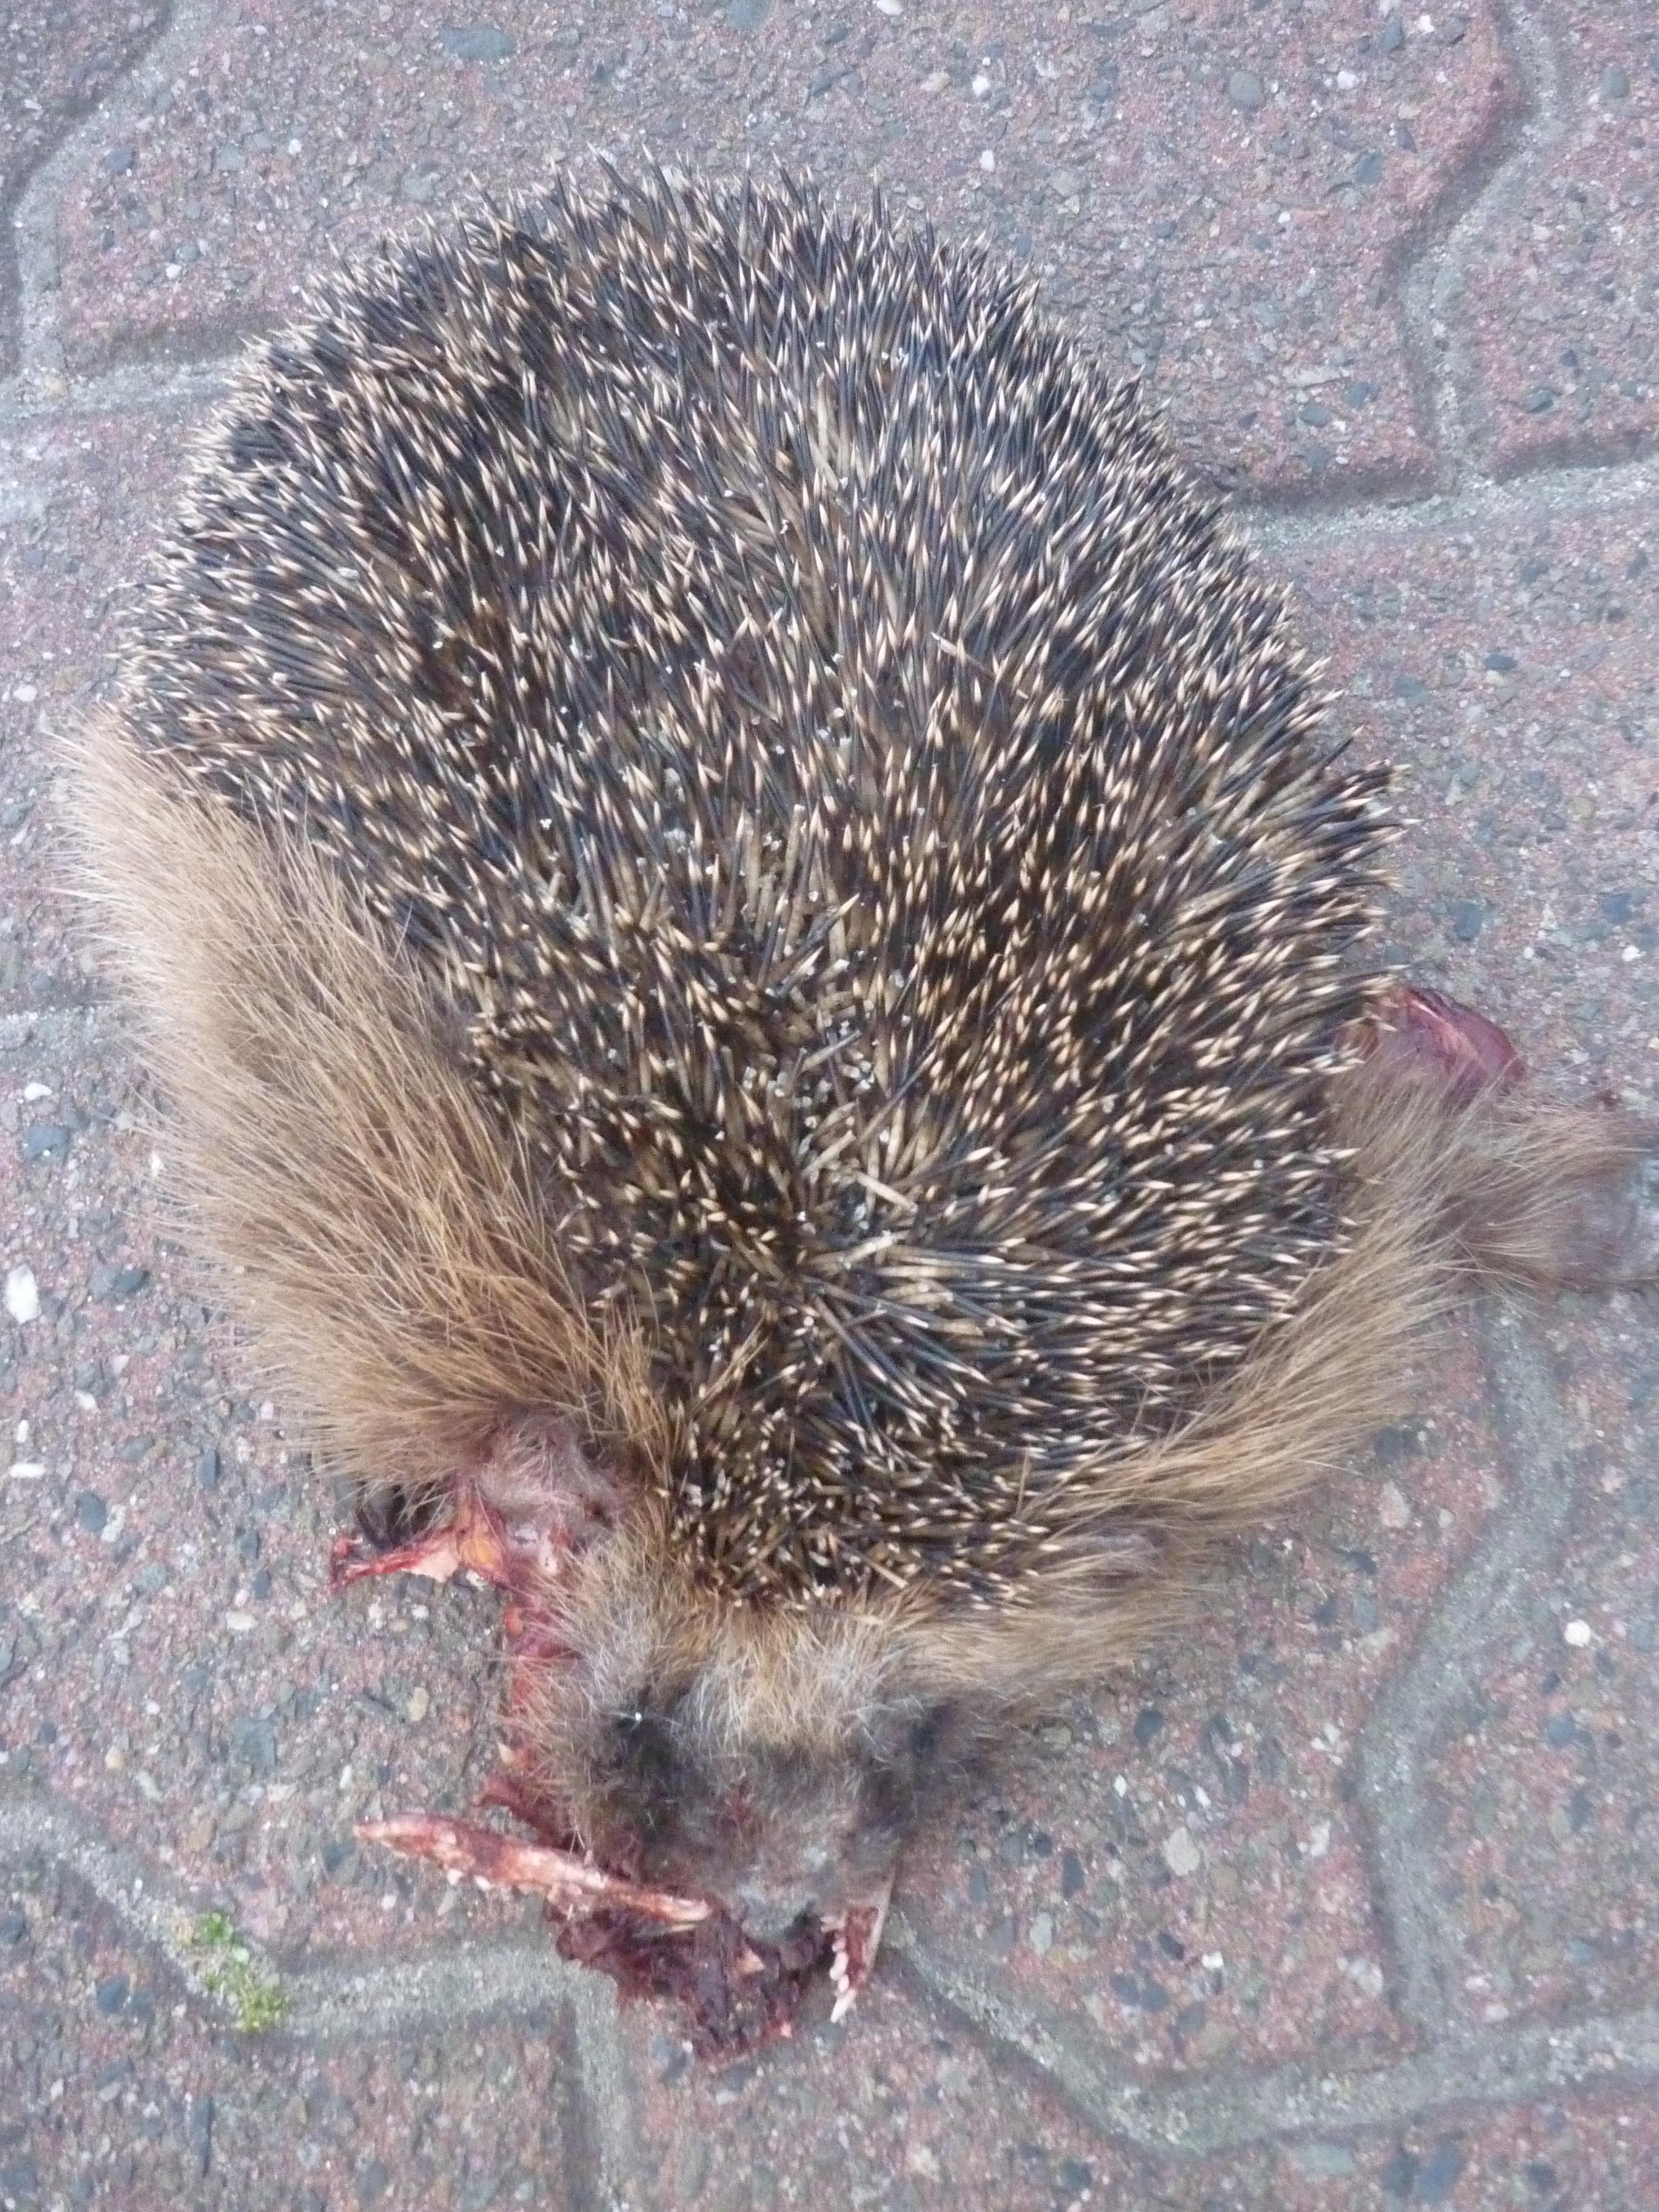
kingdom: Animalia
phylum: Chordata
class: Mammalia
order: Erinaceomorpha
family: Erinaceidae
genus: Erinaceus
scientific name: Erinaceus
